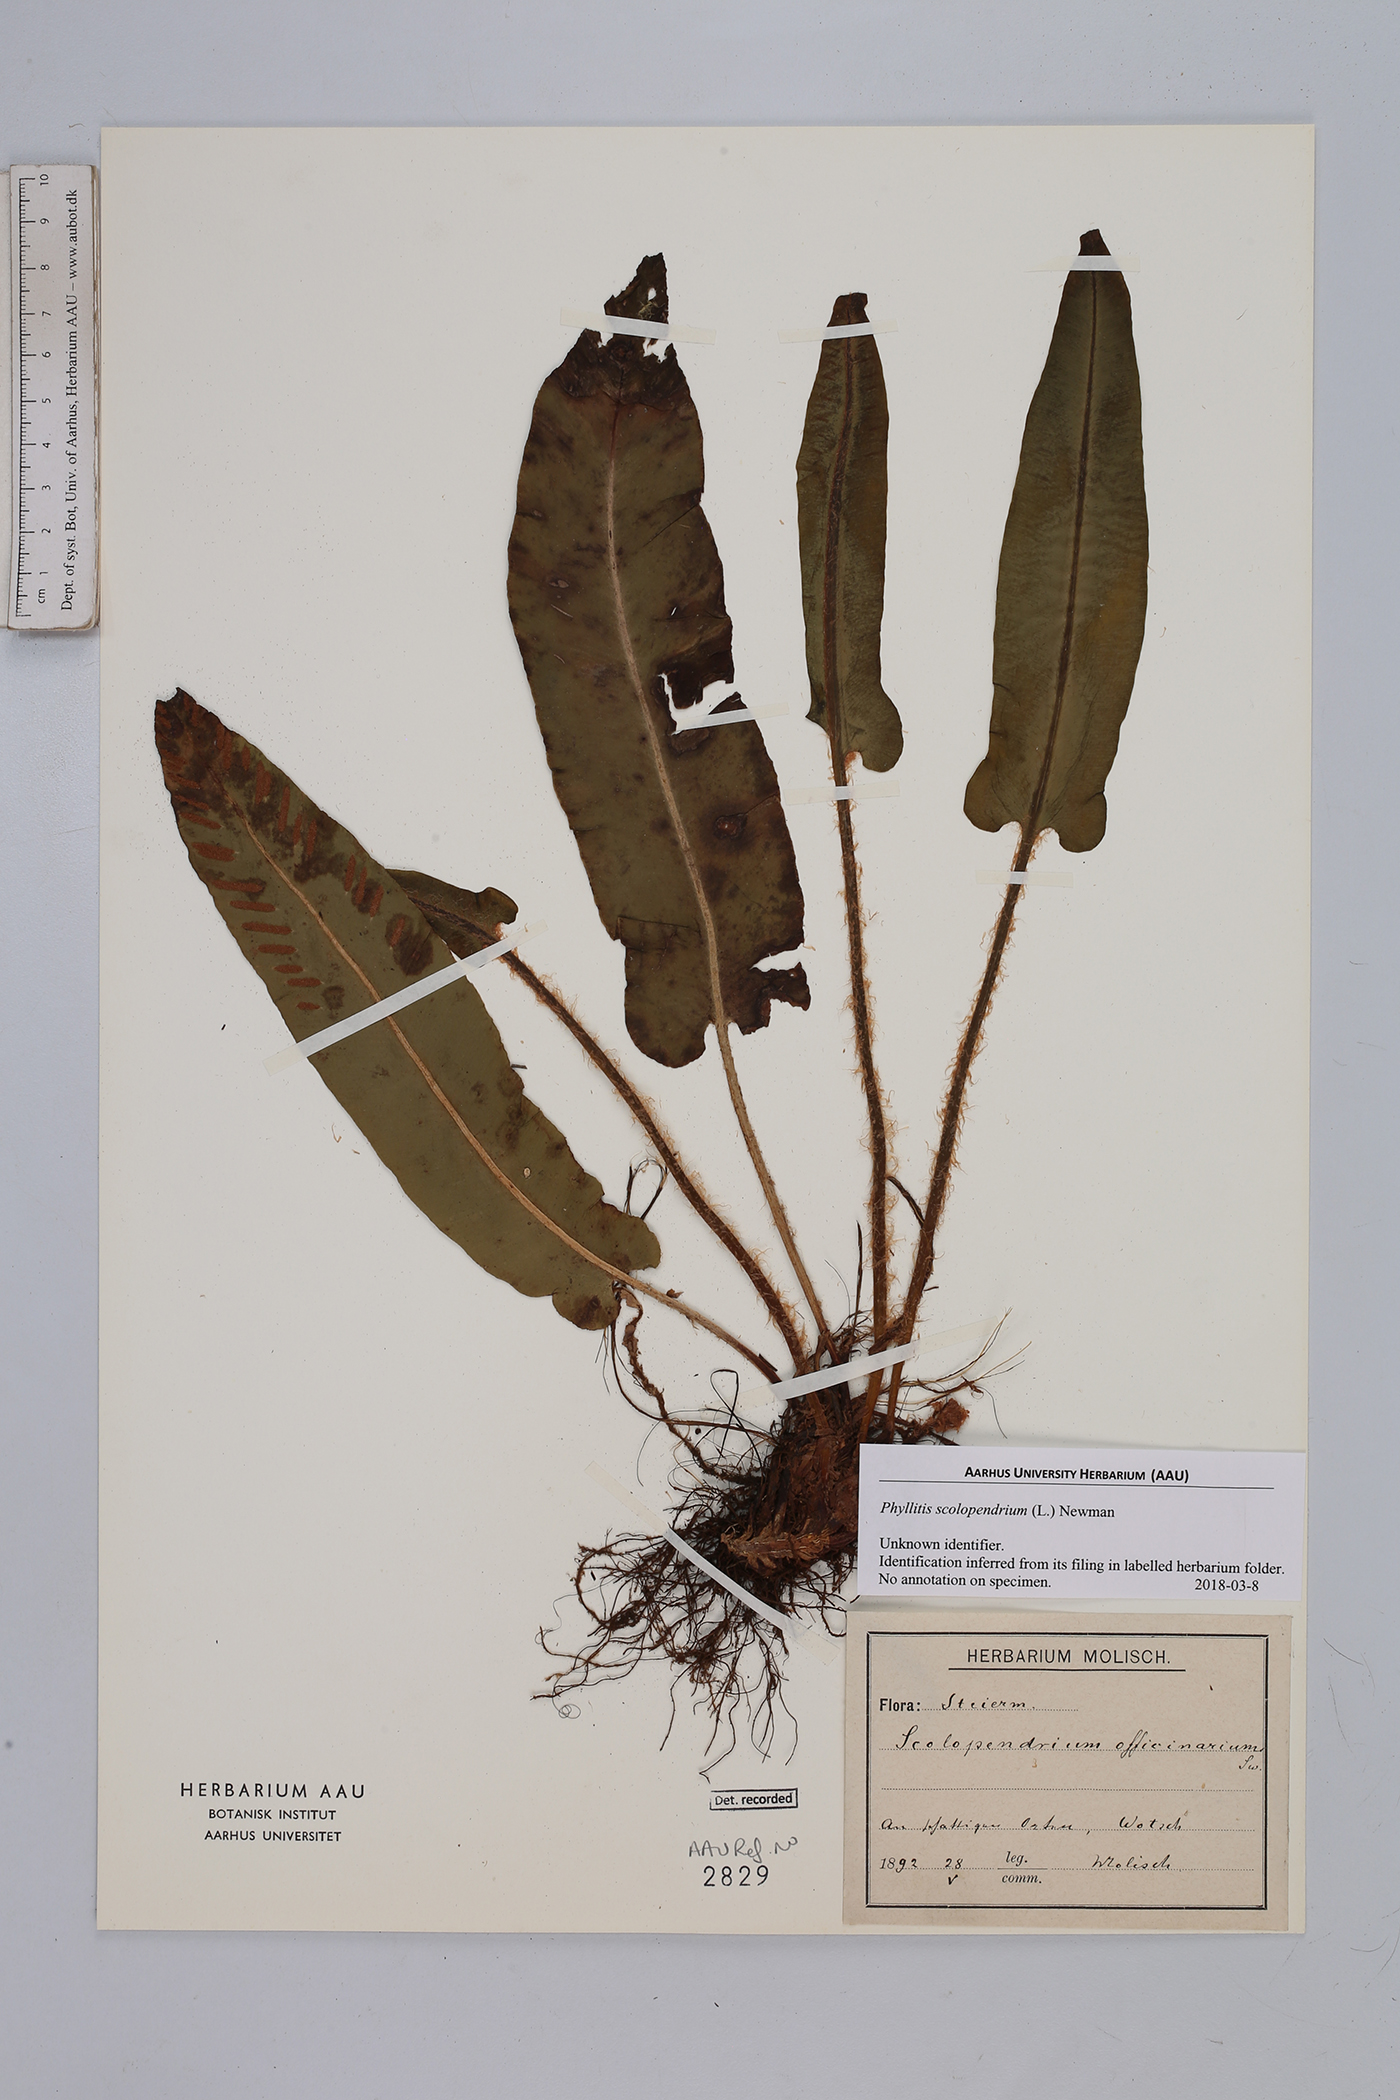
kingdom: Plantae
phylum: Tracheophyta
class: Polypodiopsida
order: Polypodiales
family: Aspleniaceae
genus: Asplenium
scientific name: Asplenium scolopendrium
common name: Hart's-tongue fern
